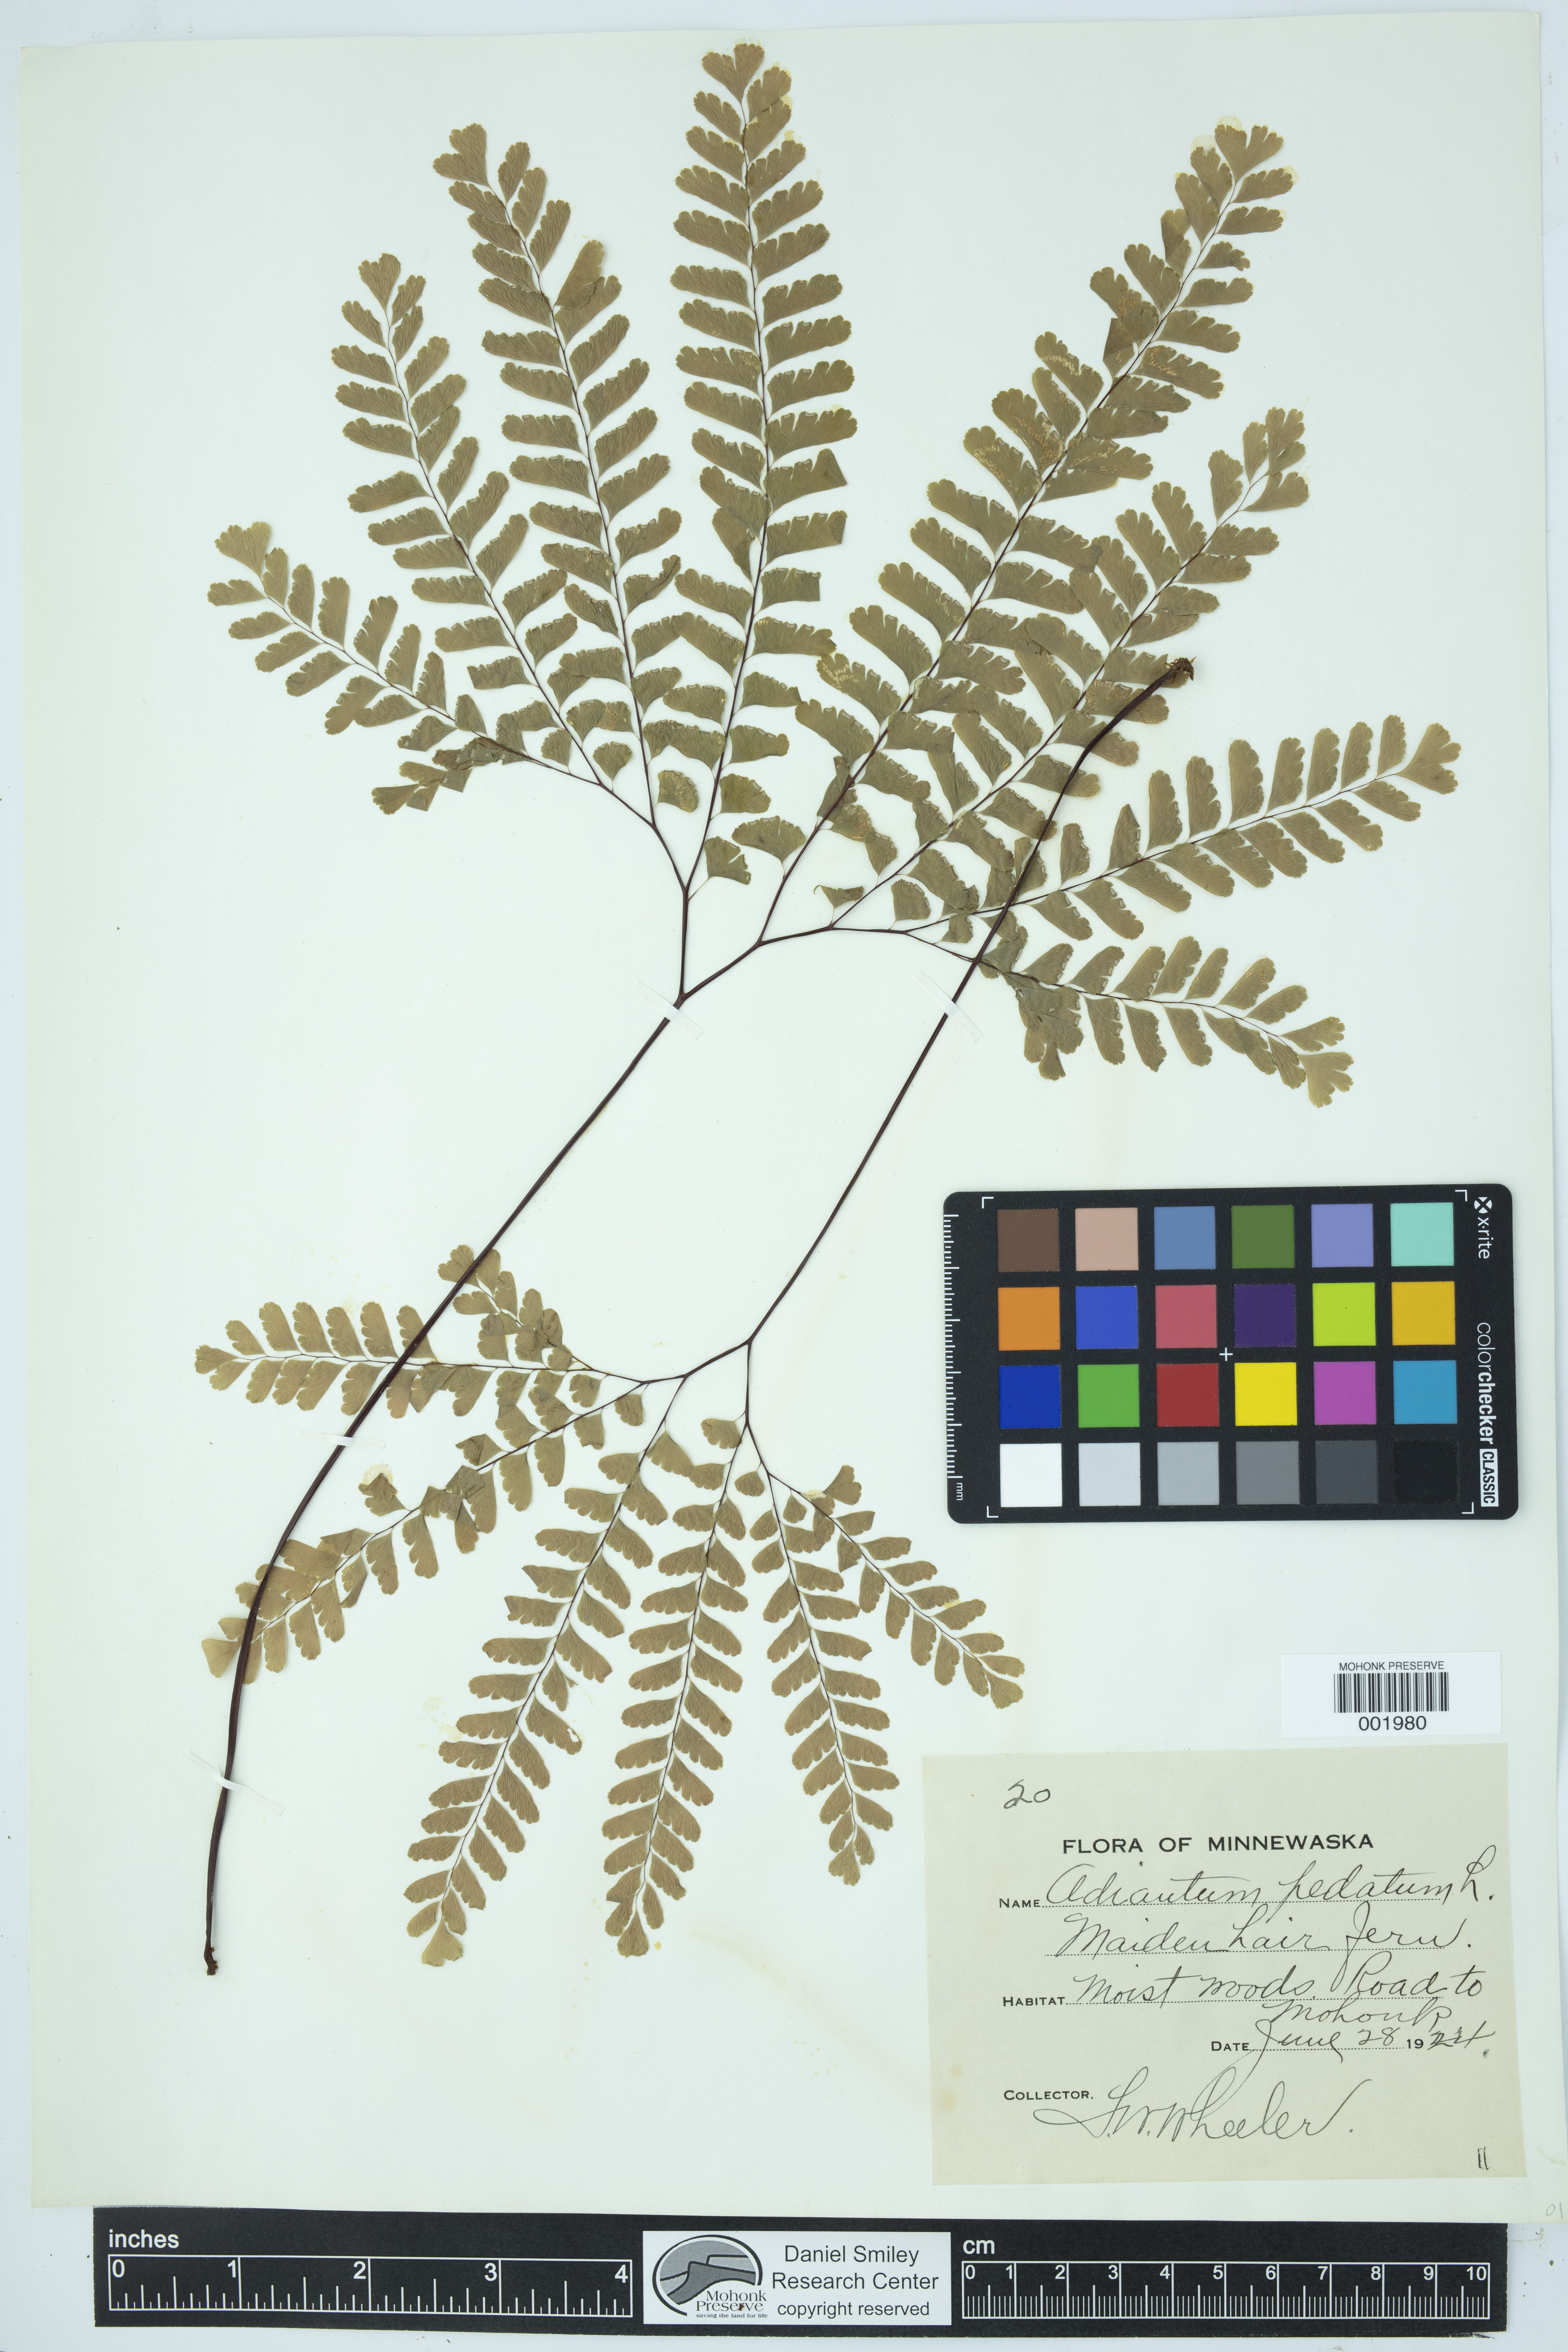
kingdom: Plantae
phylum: Tracheophyta
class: Polypodiopsida
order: Polypodiales
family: Pteridaceae
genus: Adiantum
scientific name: Adiantum pedatum
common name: Five-finger fern
